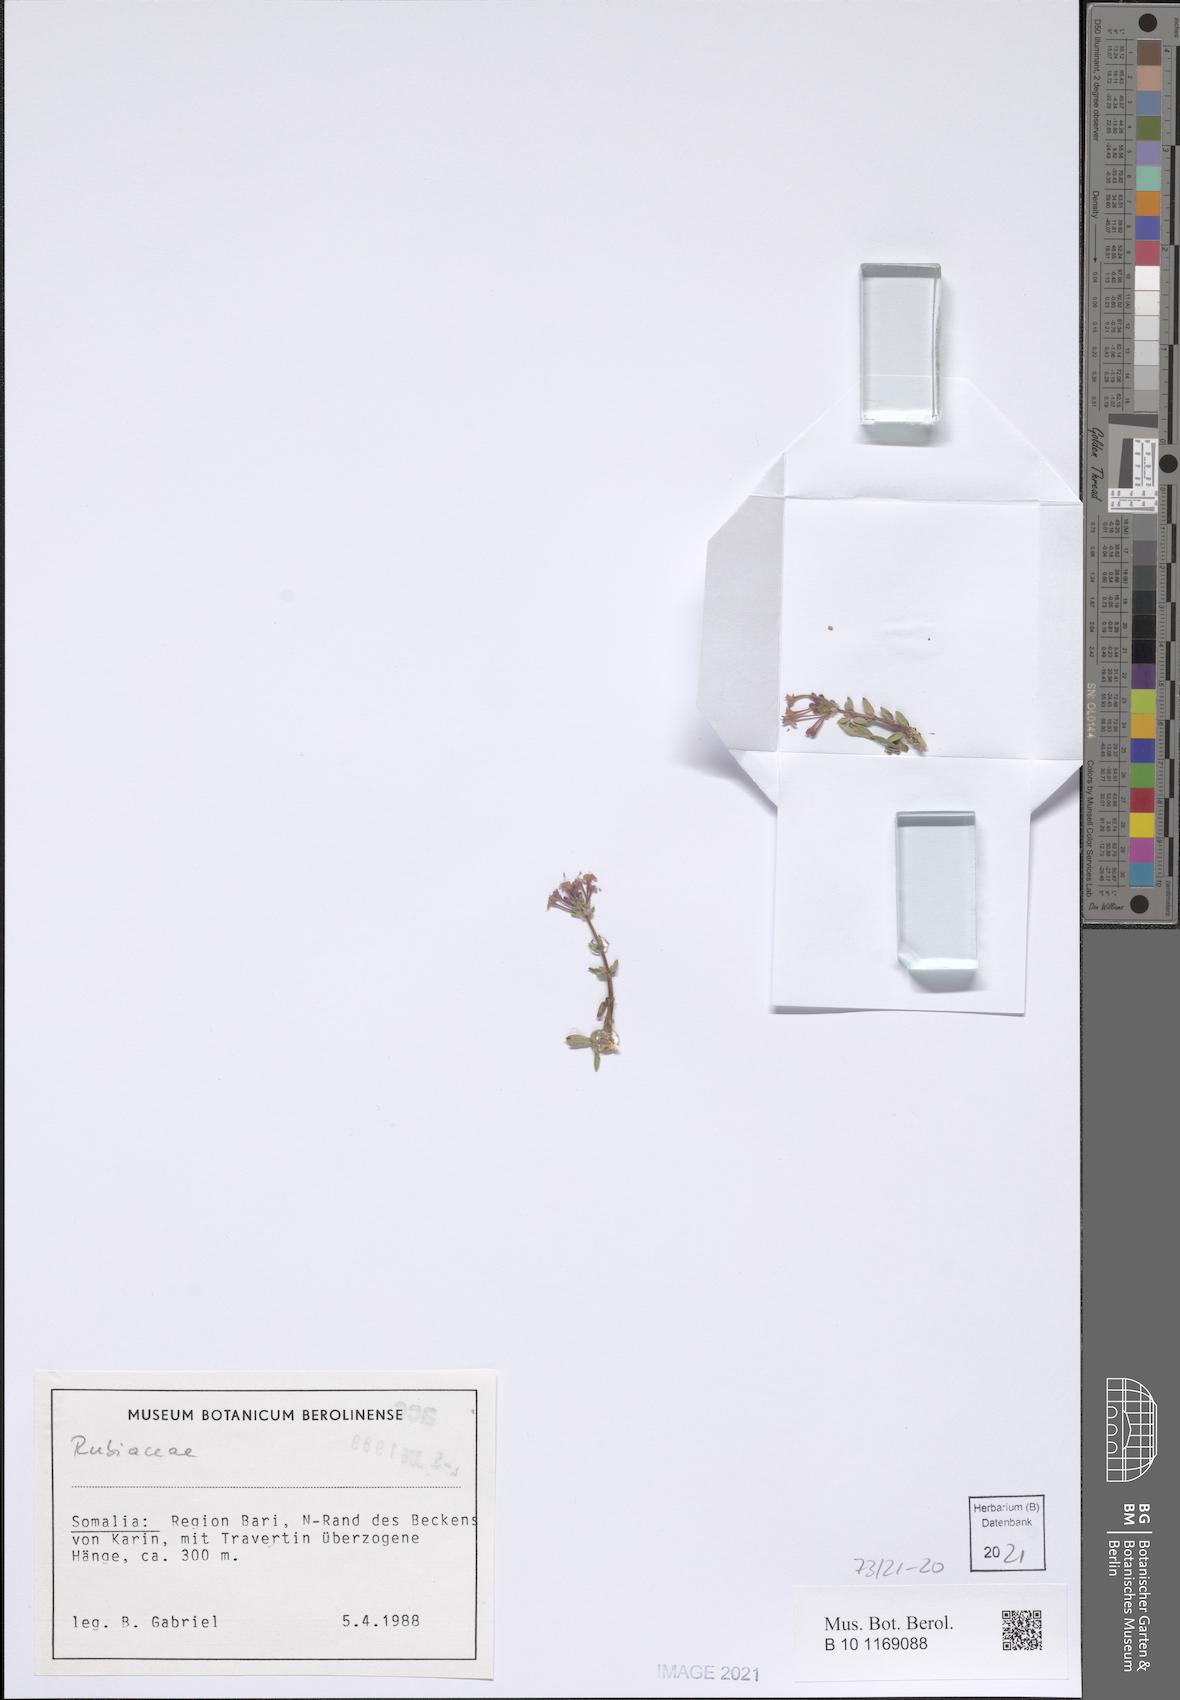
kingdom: Plantae
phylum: Tracheophyta
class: Magnoliopsida
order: Gentianales
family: Rubiaceae
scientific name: Rubiaceae
